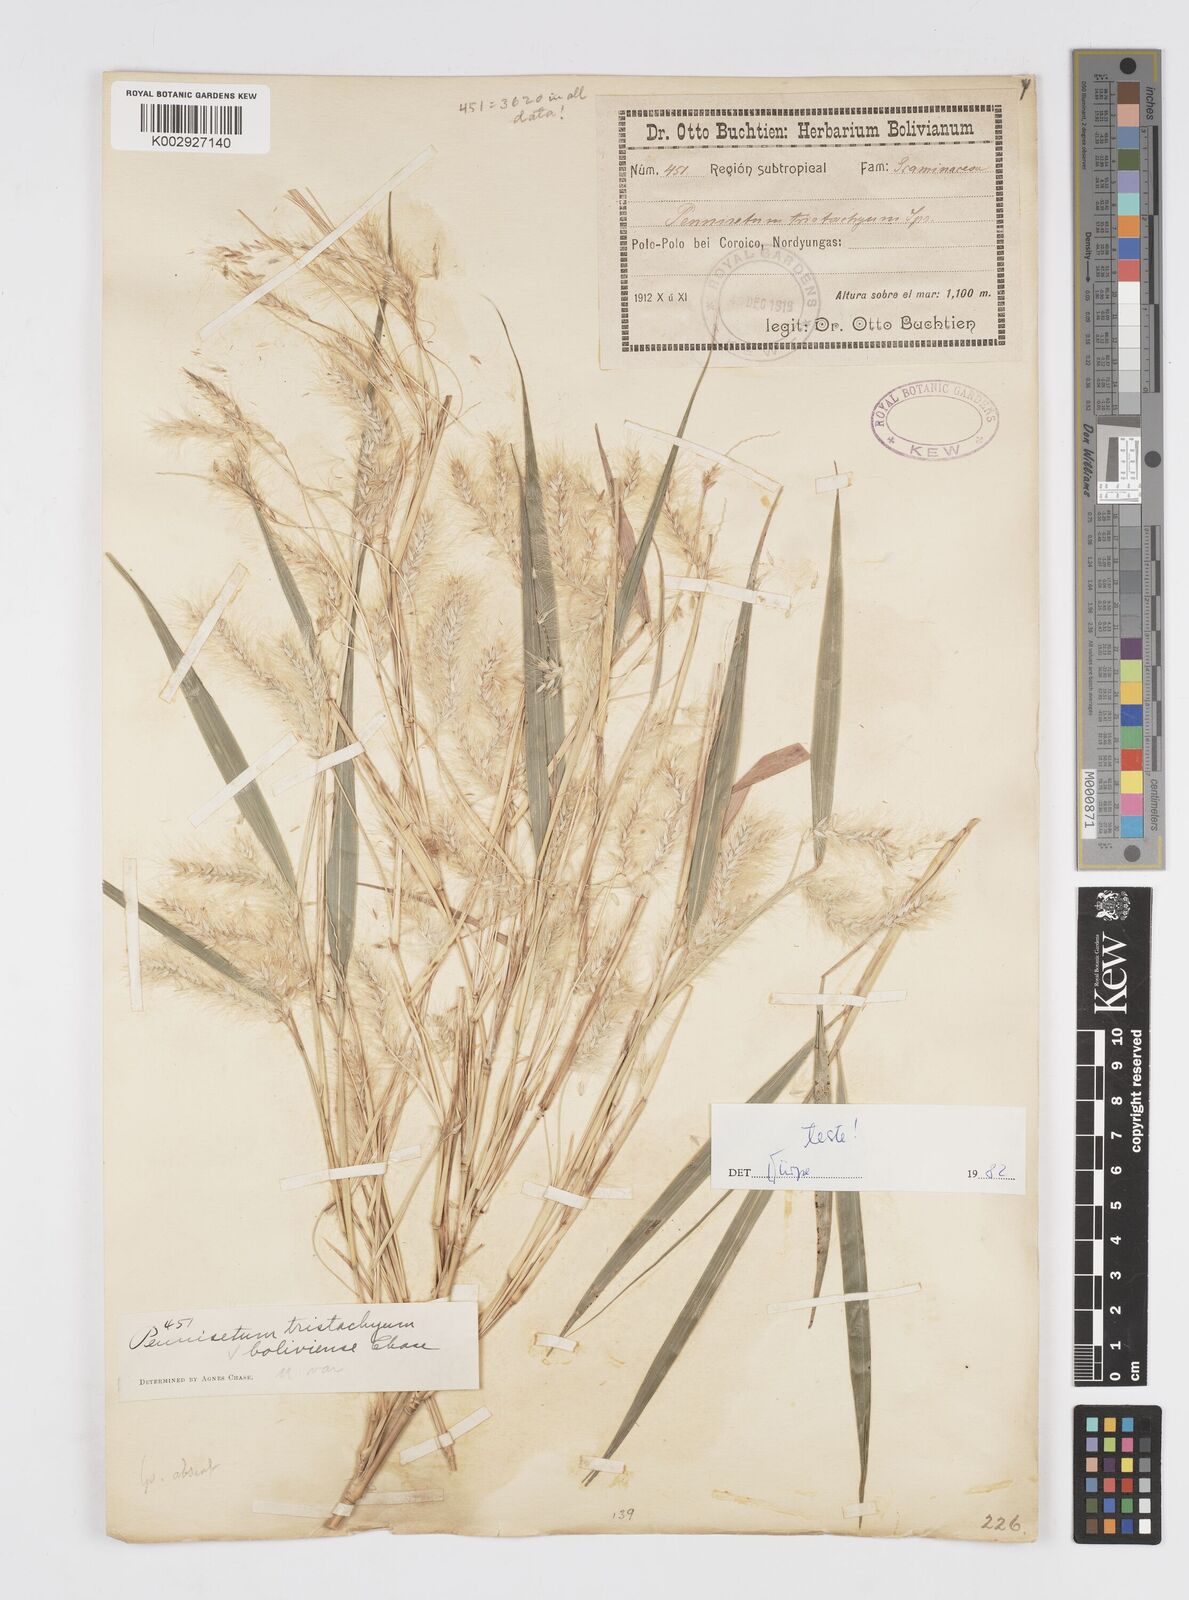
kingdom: Plantae
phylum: Tracheophyta
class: Liliopsida
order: Poales
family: Poaceae
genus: Cenchrus
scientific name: Cenchrus tristachyus
